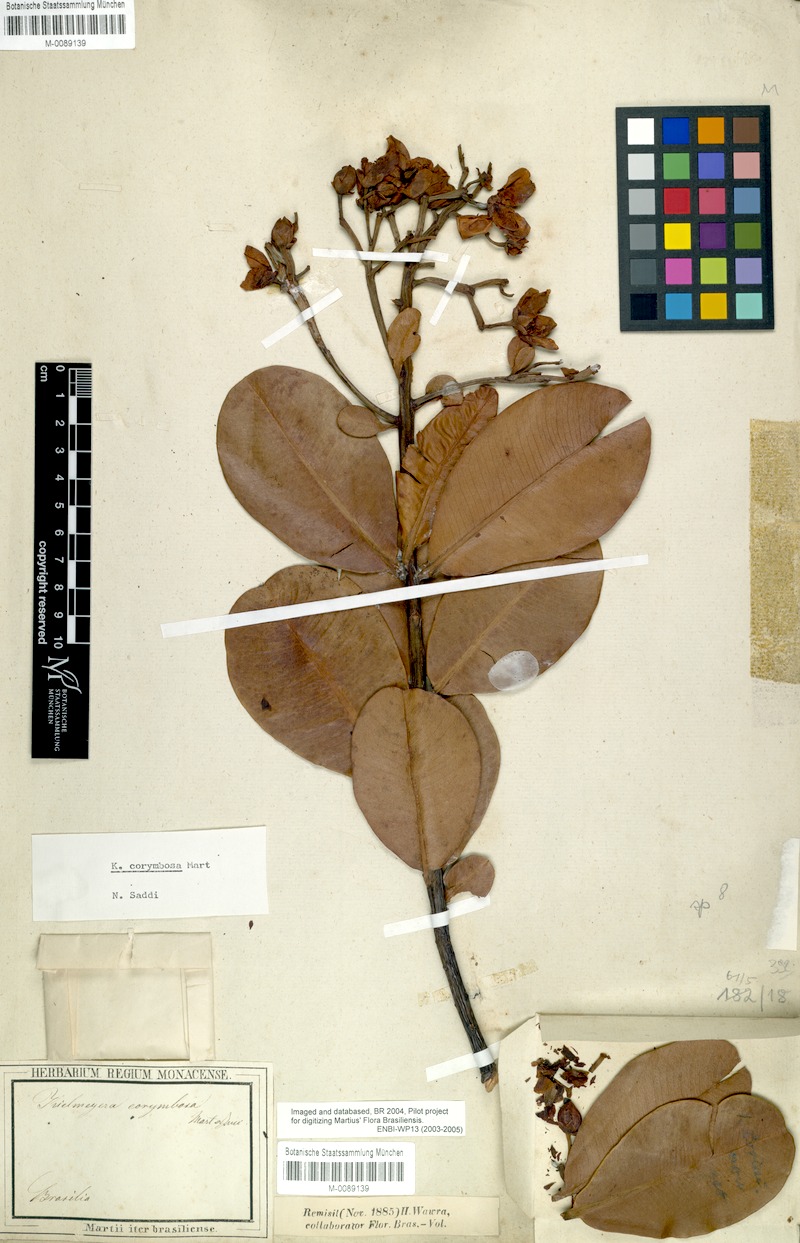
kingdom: Plantae
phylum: Tracheophyta
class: Magnoliopsida
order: Malpighiales
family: Calophyllaceae
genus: Kielmeyera
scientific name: Kielmeyera corymbosa
